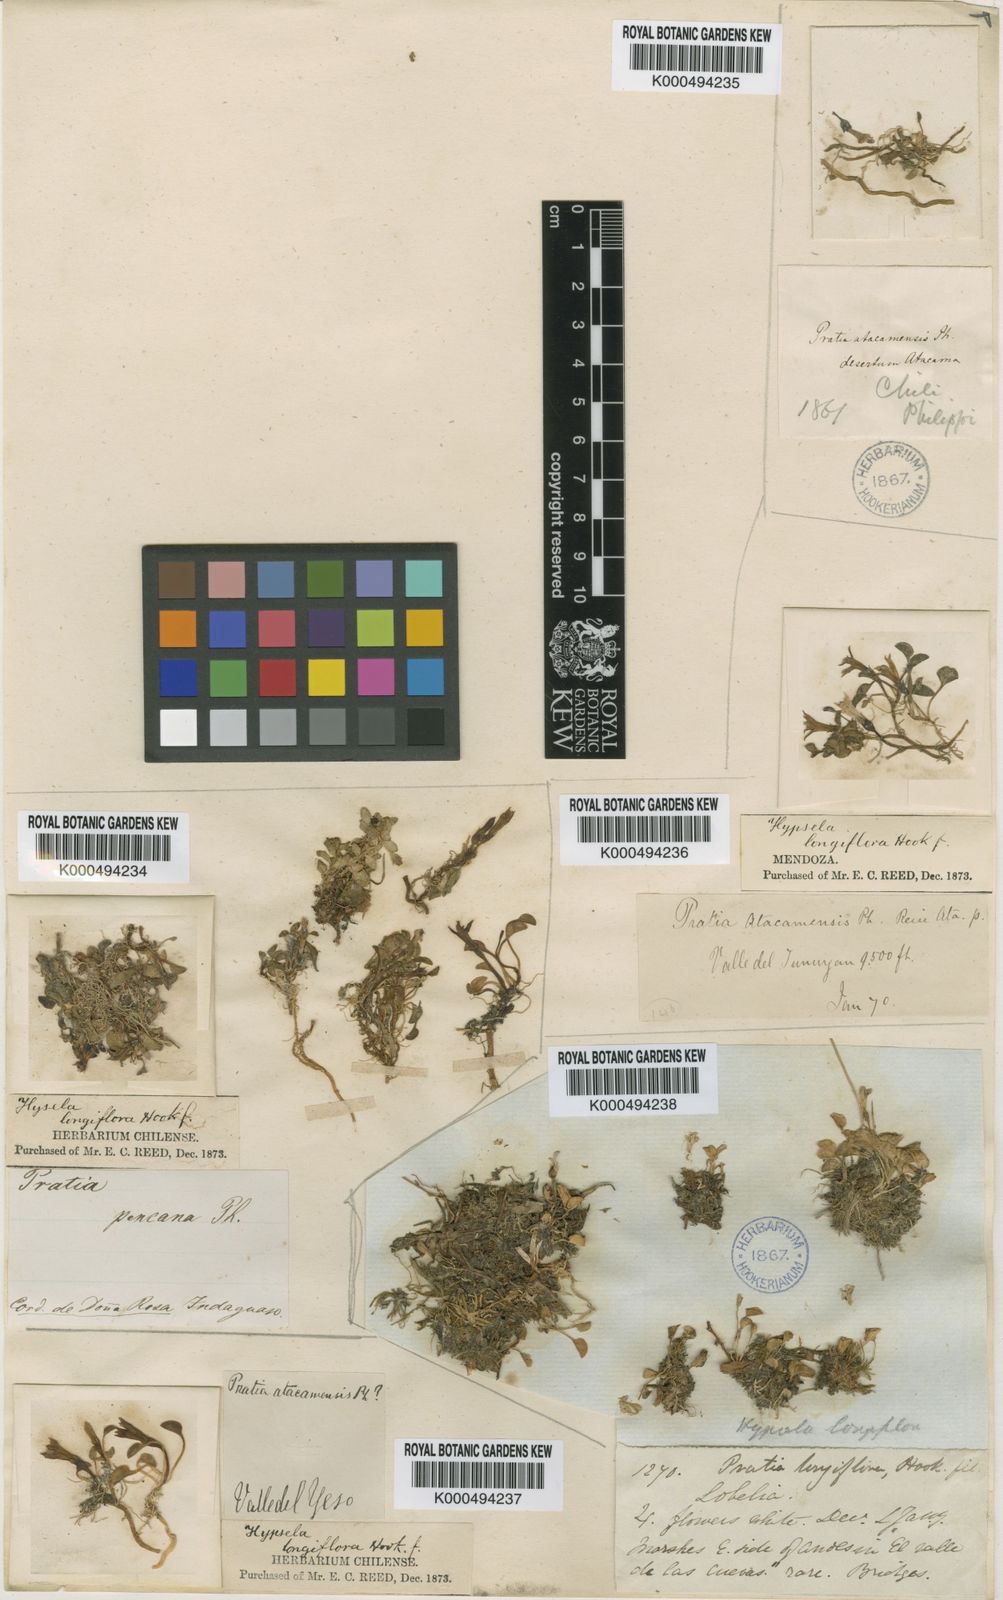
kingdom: Plantae
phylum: Tracheophyta
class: Magnoliopsida
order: Asterales
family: Campanulaceae
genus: Lobelia
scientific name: Lobelia oligophylla
